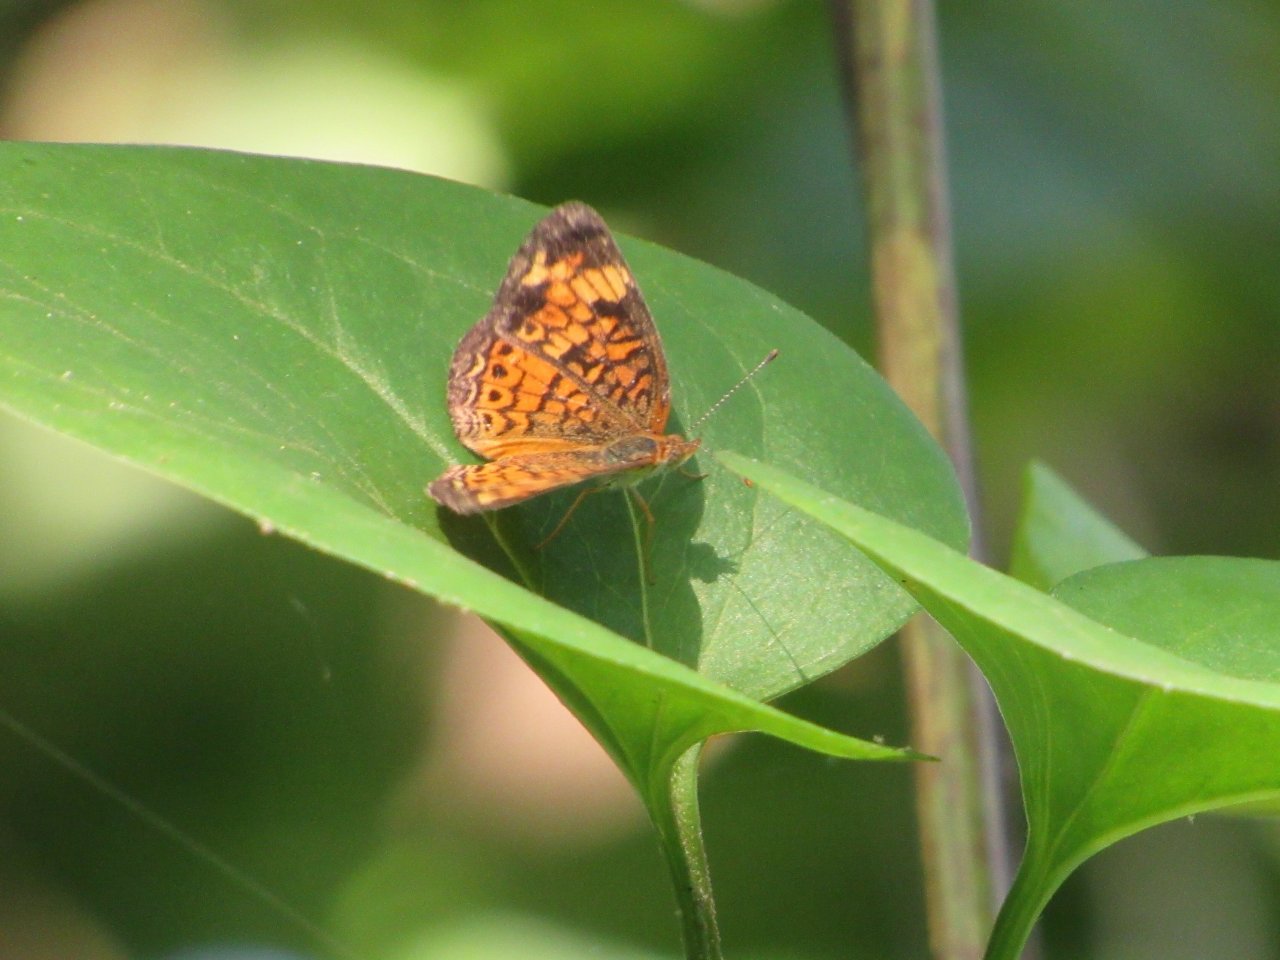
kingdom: Animalia
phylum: Arthropoda
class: Insecta
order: Lepidoptera
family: Nymphalidae
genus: Phyciodes
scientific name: Phyciodes tharos
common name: Pearl Crescent
